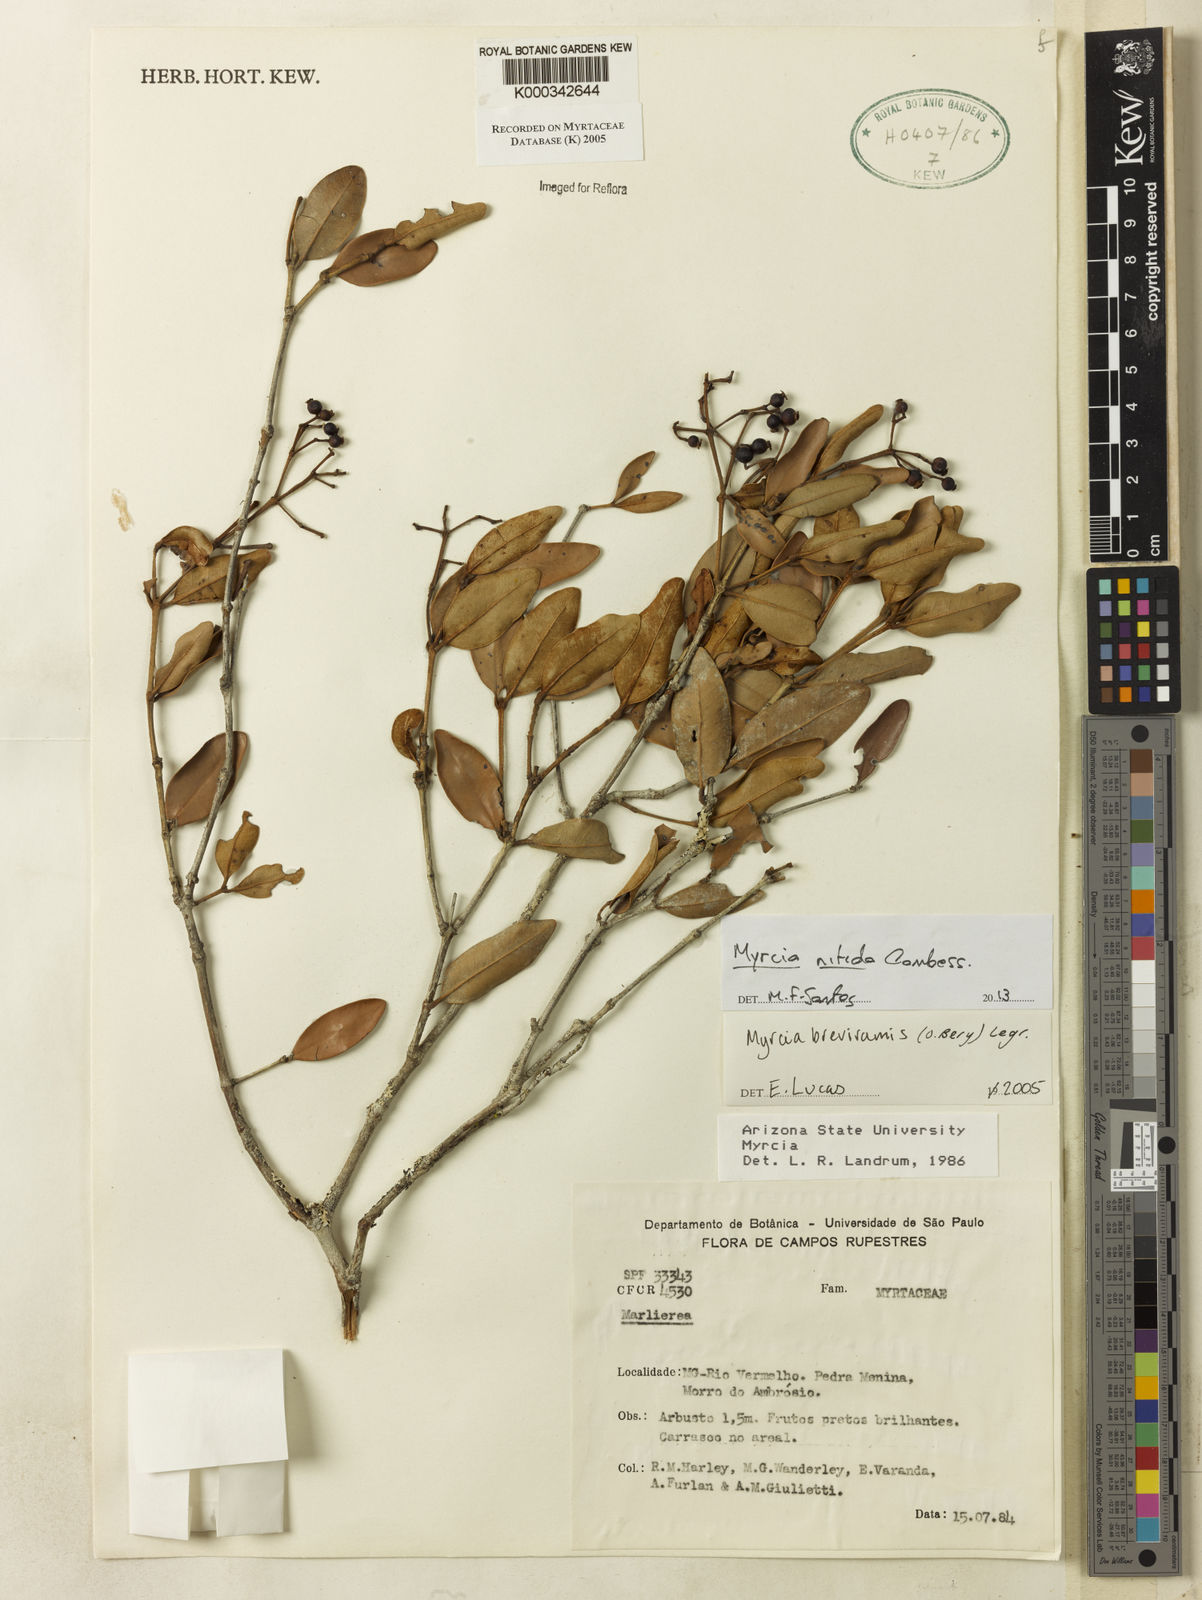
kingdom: Plantae
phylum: Tracheophyta
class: Magnoliopsida
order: Myrtales
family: Myrtaceae
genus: Myrcia
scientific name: Myrcia pulchra
